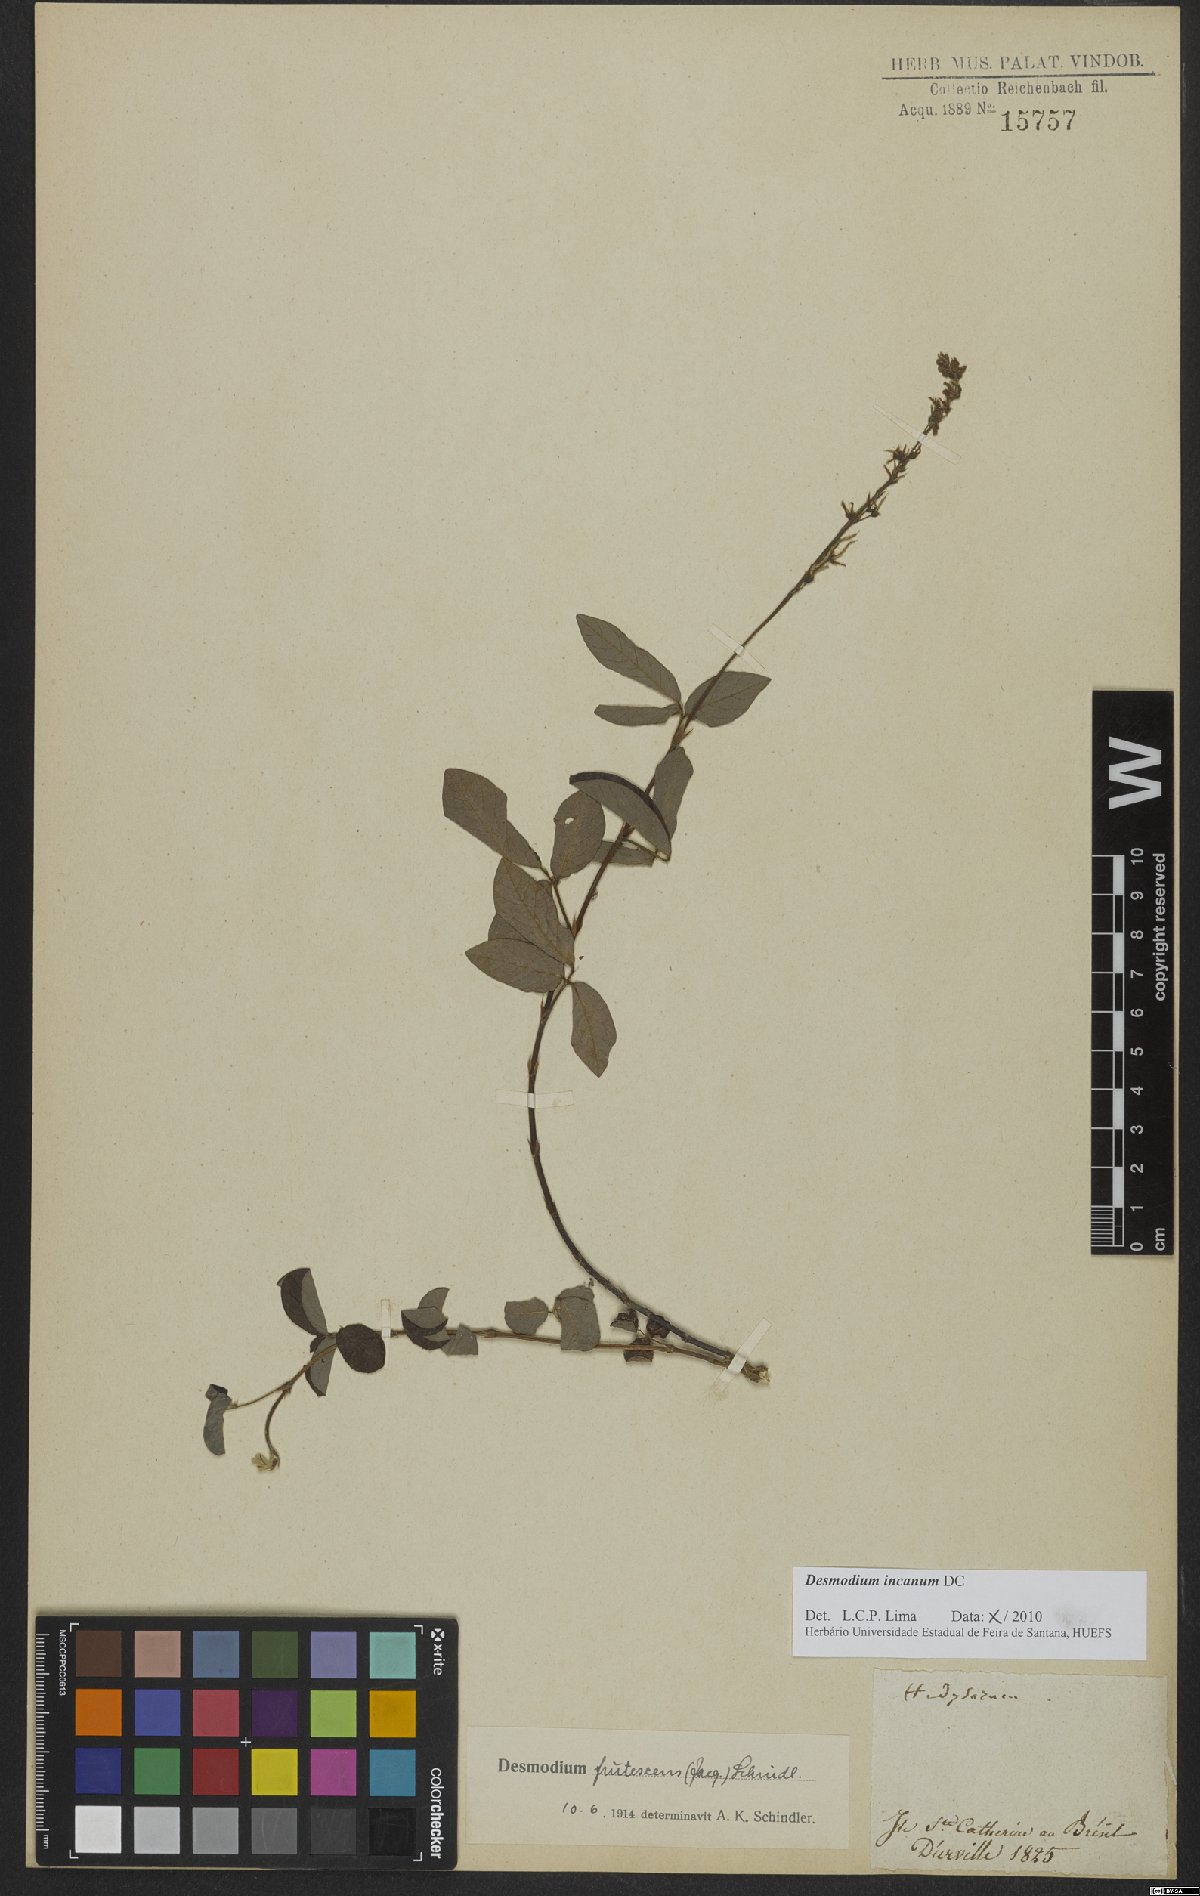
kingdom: Plantae
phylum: Tracheophyta
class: Magnoliopsida
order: Fabales
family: Fabaceae
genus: Desmodium
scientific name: Desmodium incanum
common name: Tickclover
